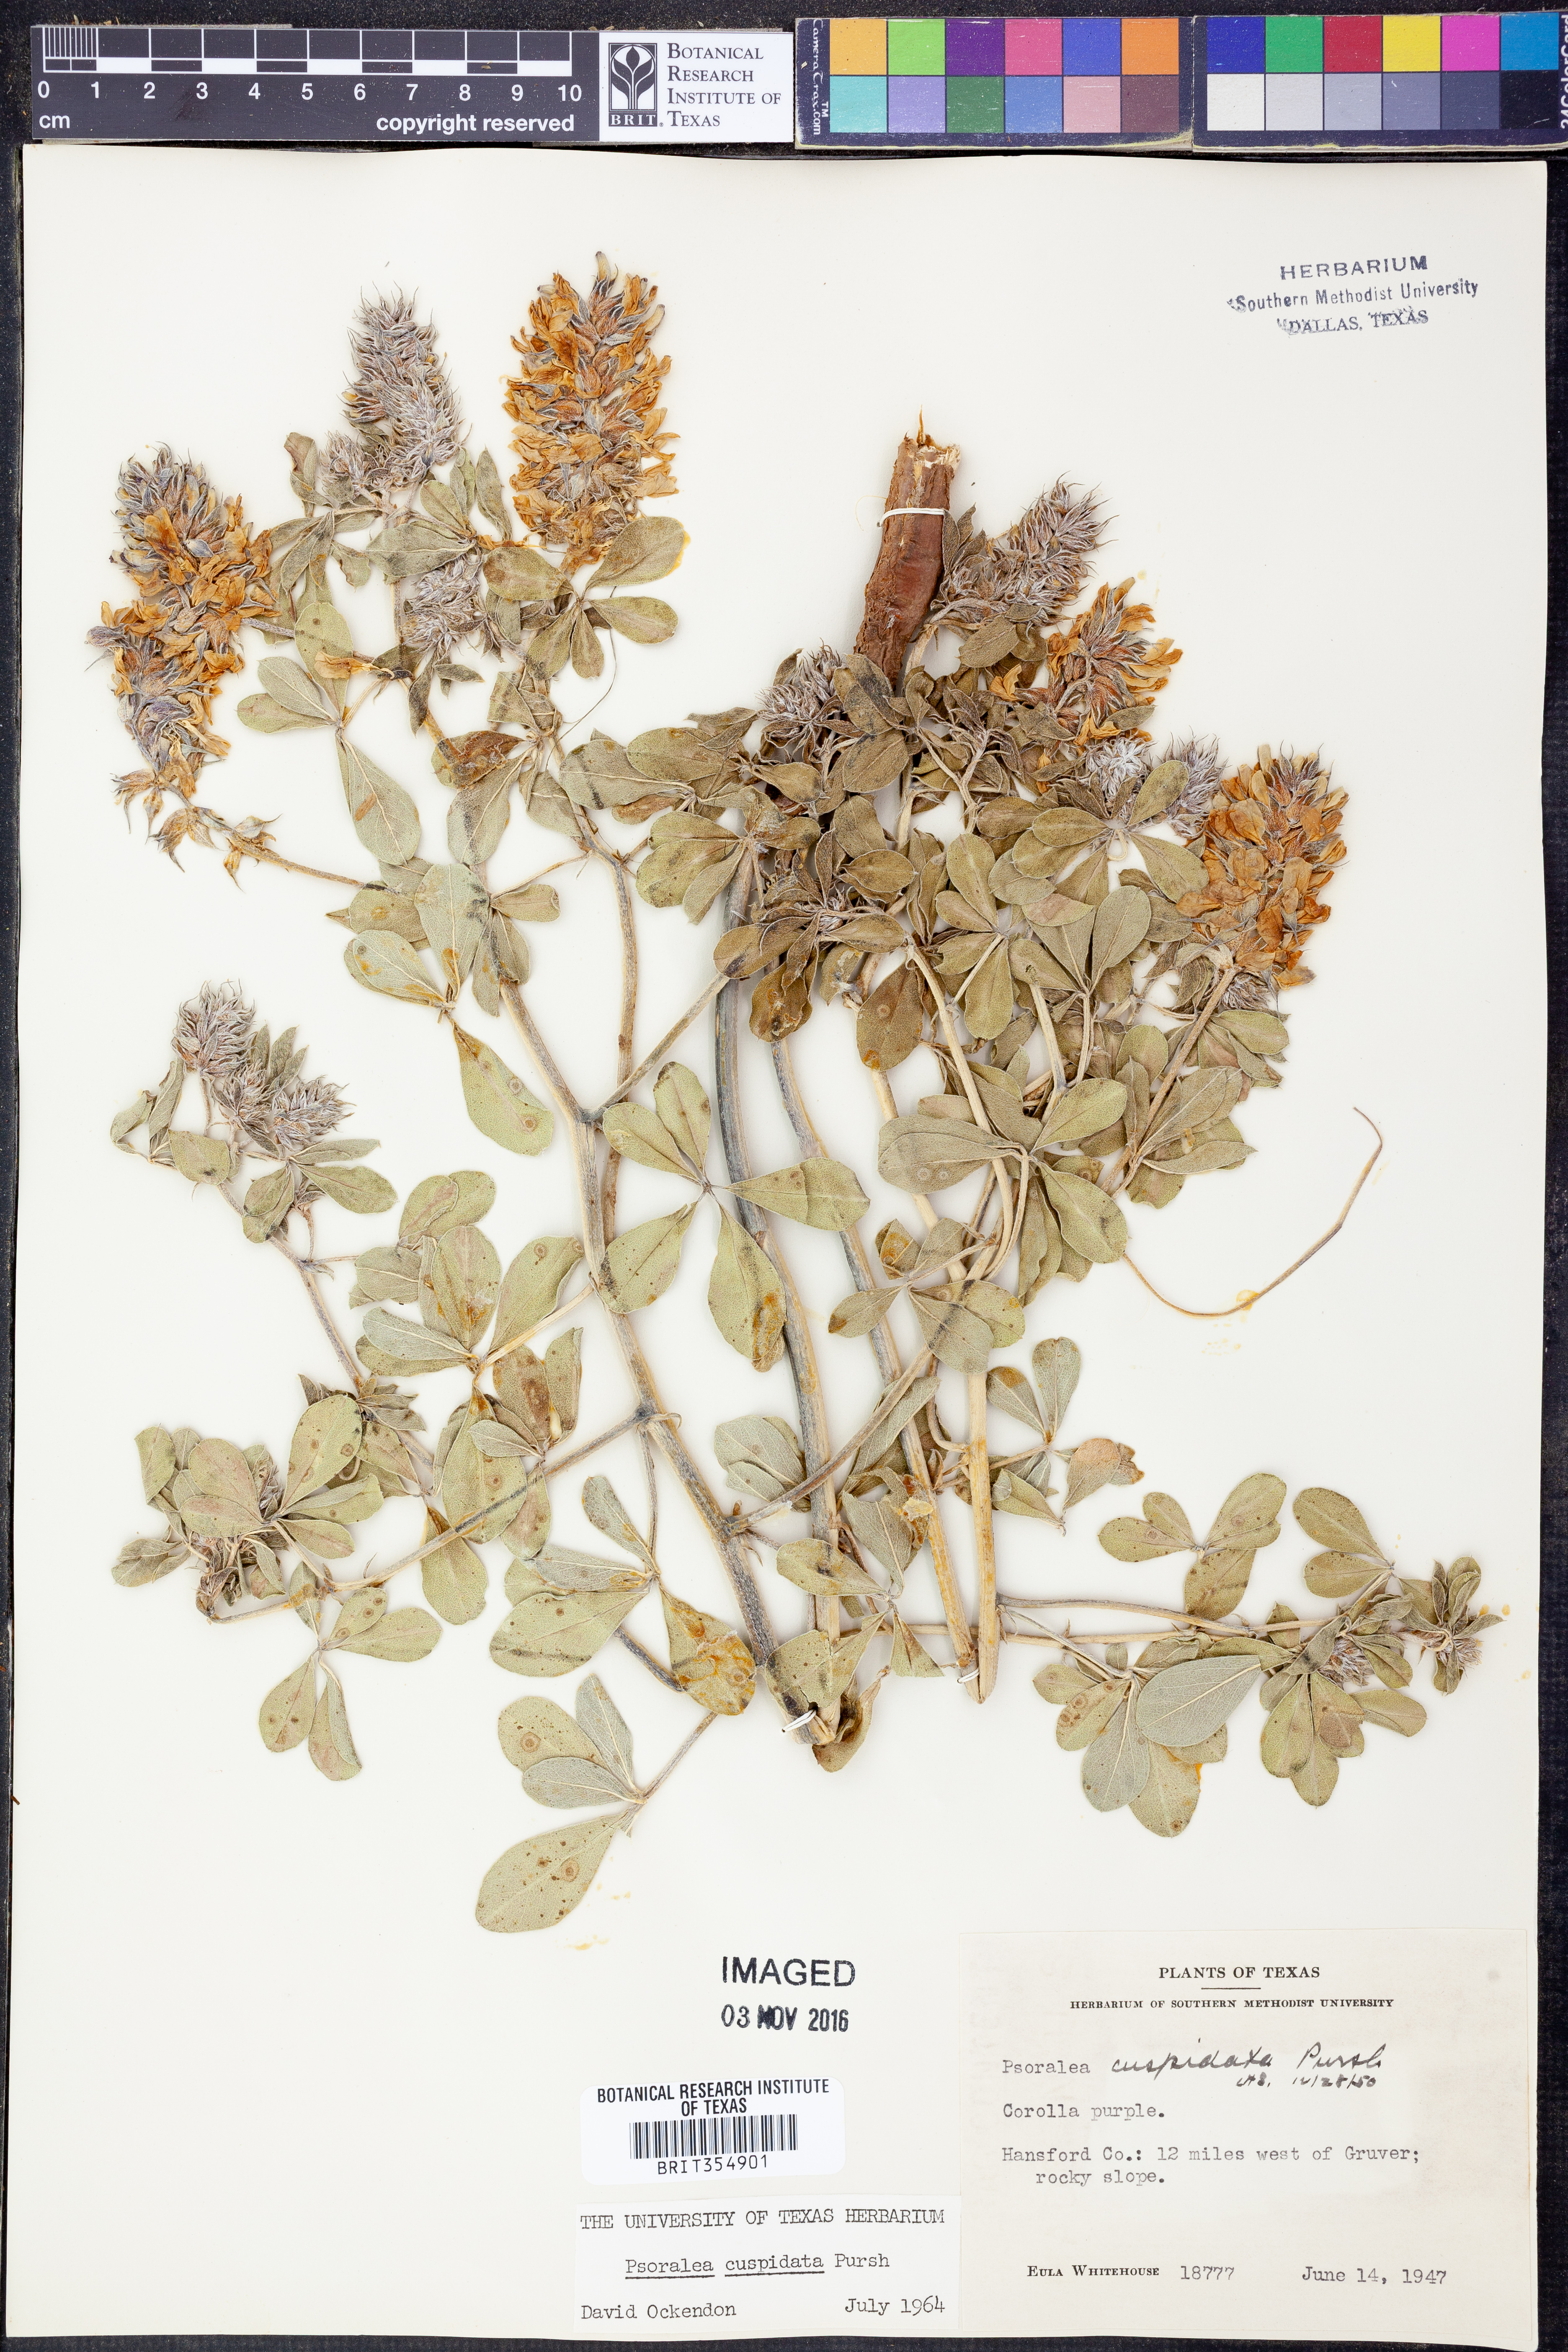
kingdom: Plantae
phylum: Tracheophyta
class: Magnoliopsida
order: Fabales
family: Fabaceae
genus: Pediomelum
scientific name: Pediomelum cuspidatum
